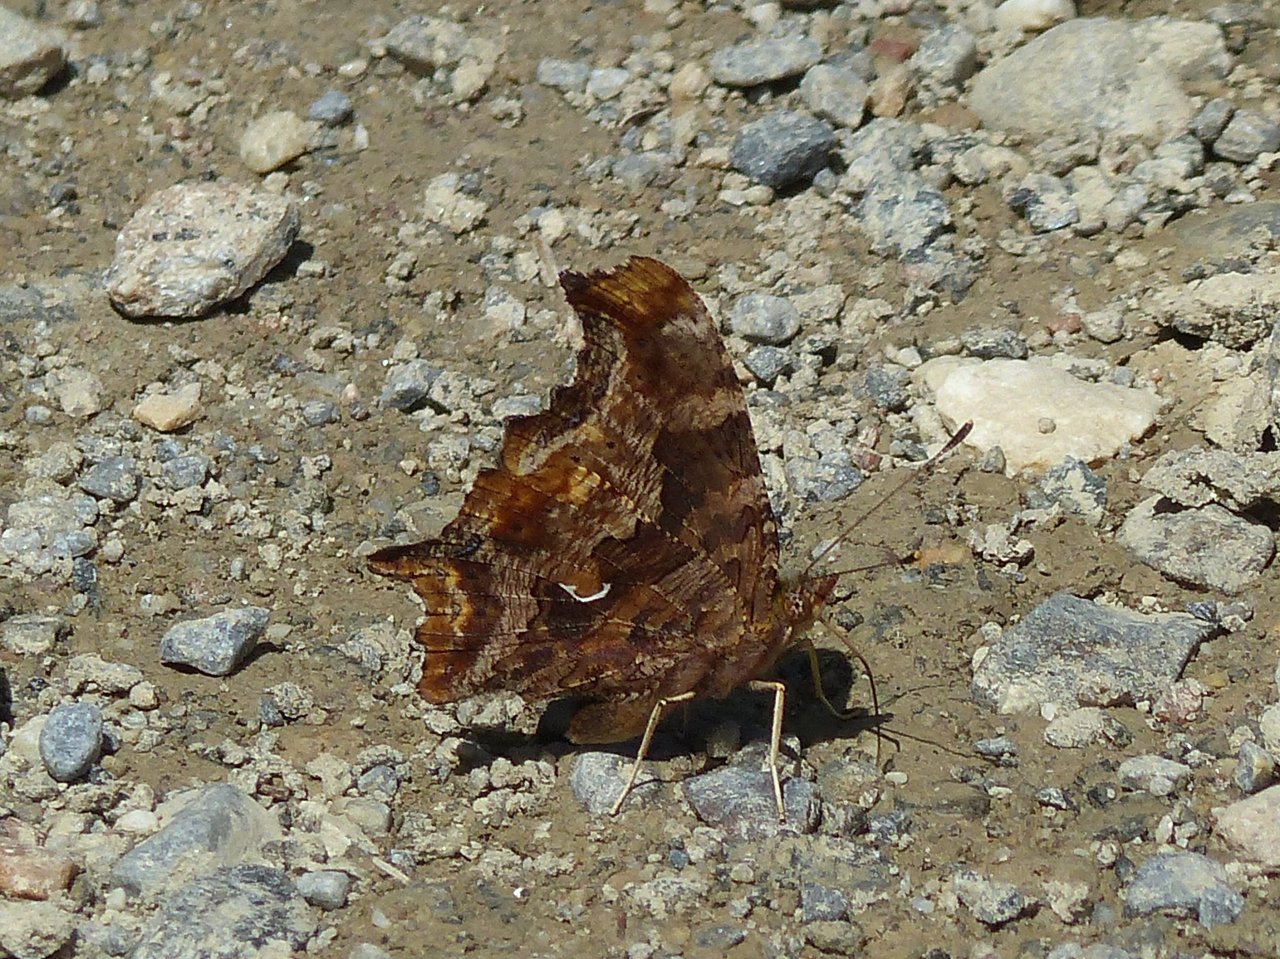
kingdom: Animalia
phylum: Arthropoda
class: Insecta
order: Lepidoptera
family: Nymphalidae
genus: Polygonia
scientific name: Polygonia comma
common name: Eastern Comma
